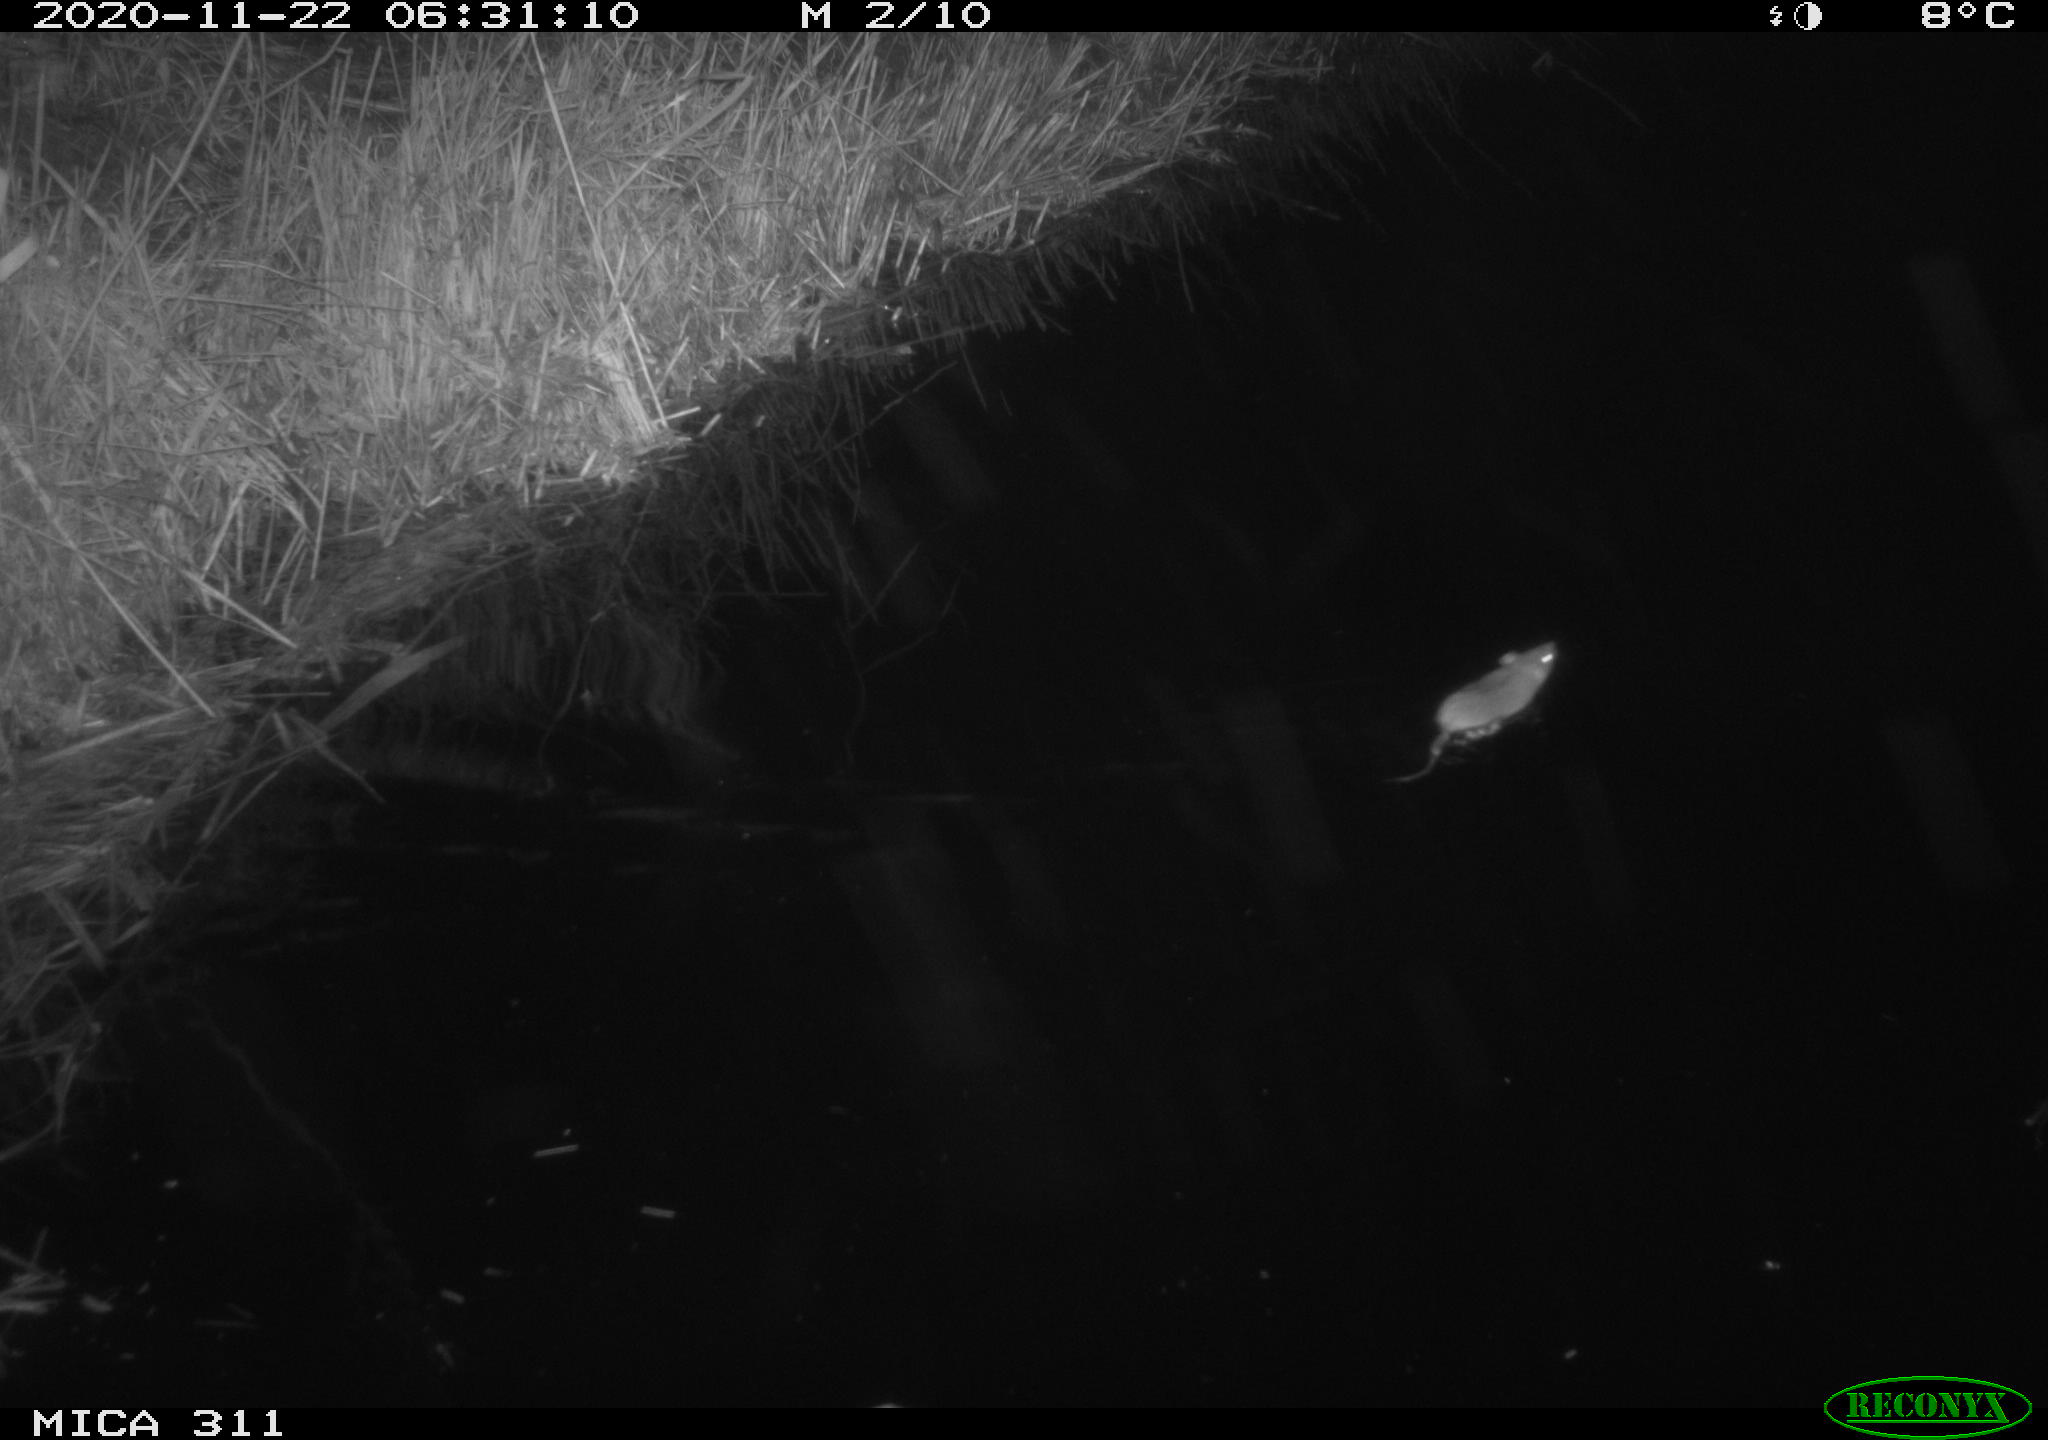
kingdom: Animalia
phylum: Chordata
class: Mammalia
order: Rodentia
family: Muridae
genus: Rattus
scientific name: Rattus norvegicus
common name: Brown rat
